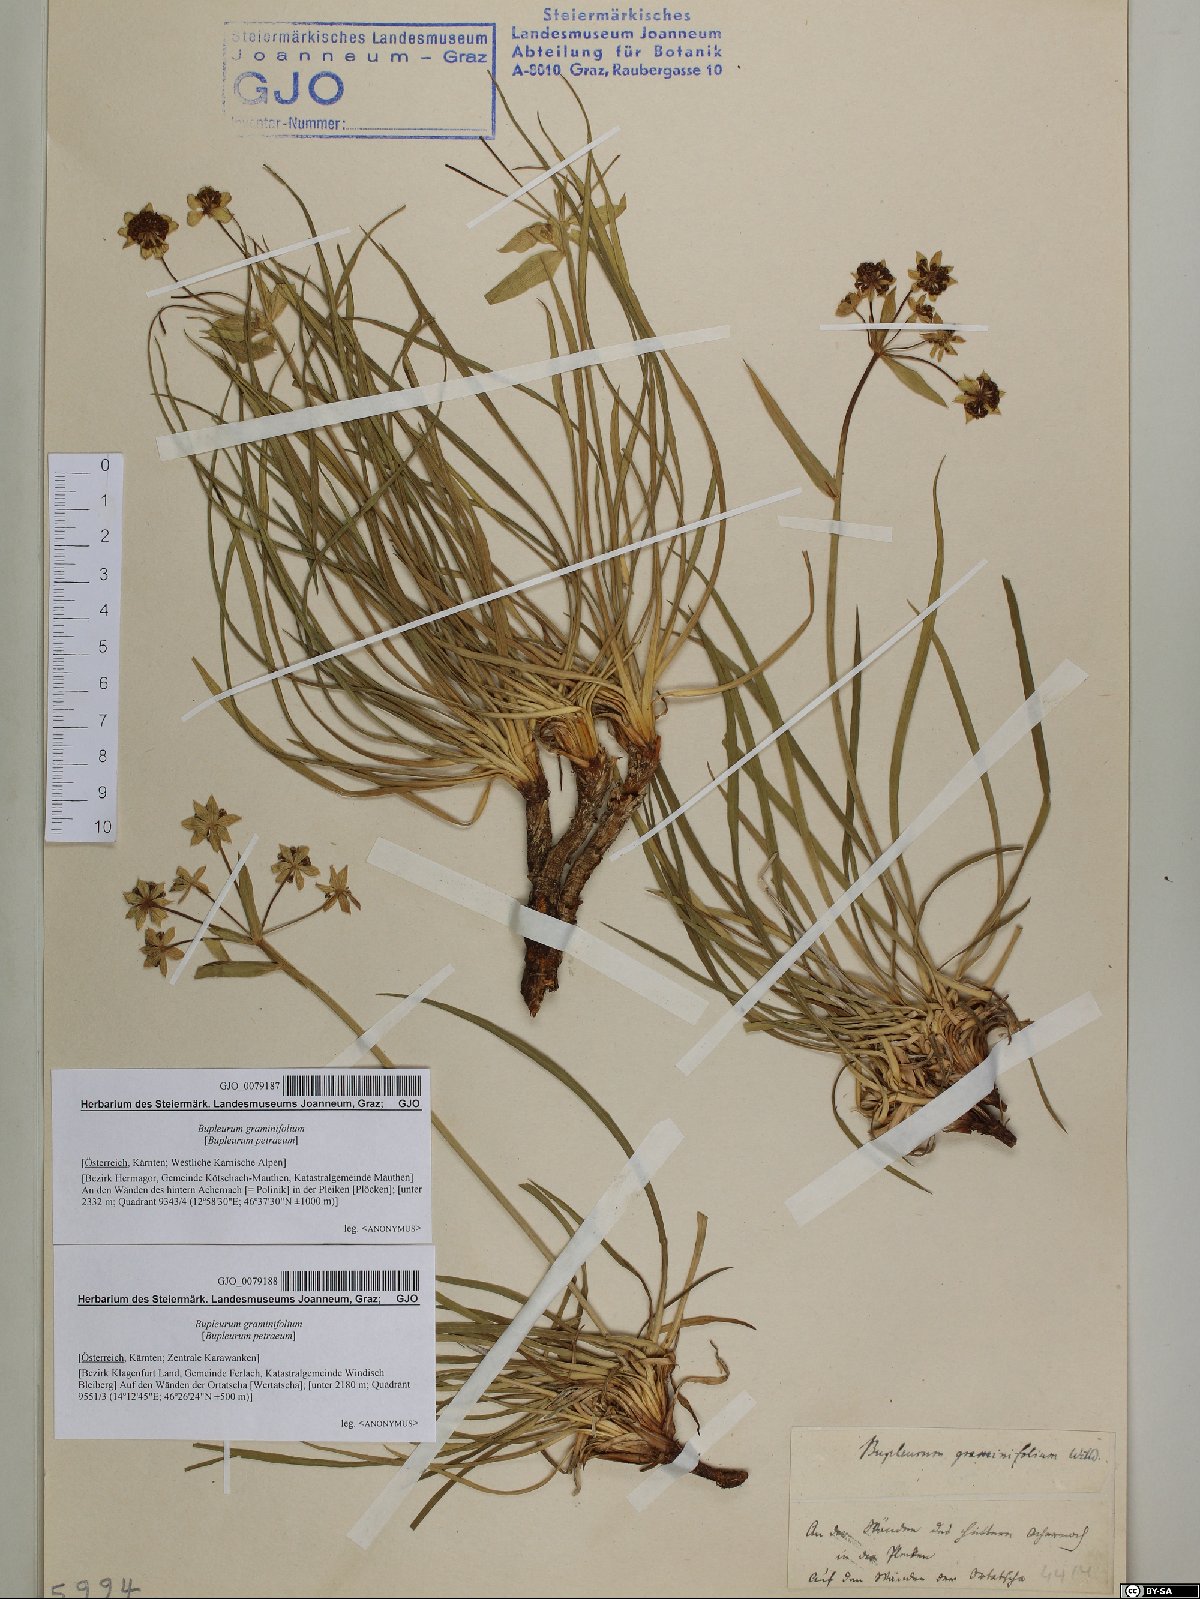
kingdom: Plantae
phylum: Tracheophyta
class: Magnoliopsida
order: Apiales
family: Apiaceae
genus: Bupleurum
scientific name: Bupleurum petraeum
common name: Rock hare's-ear
